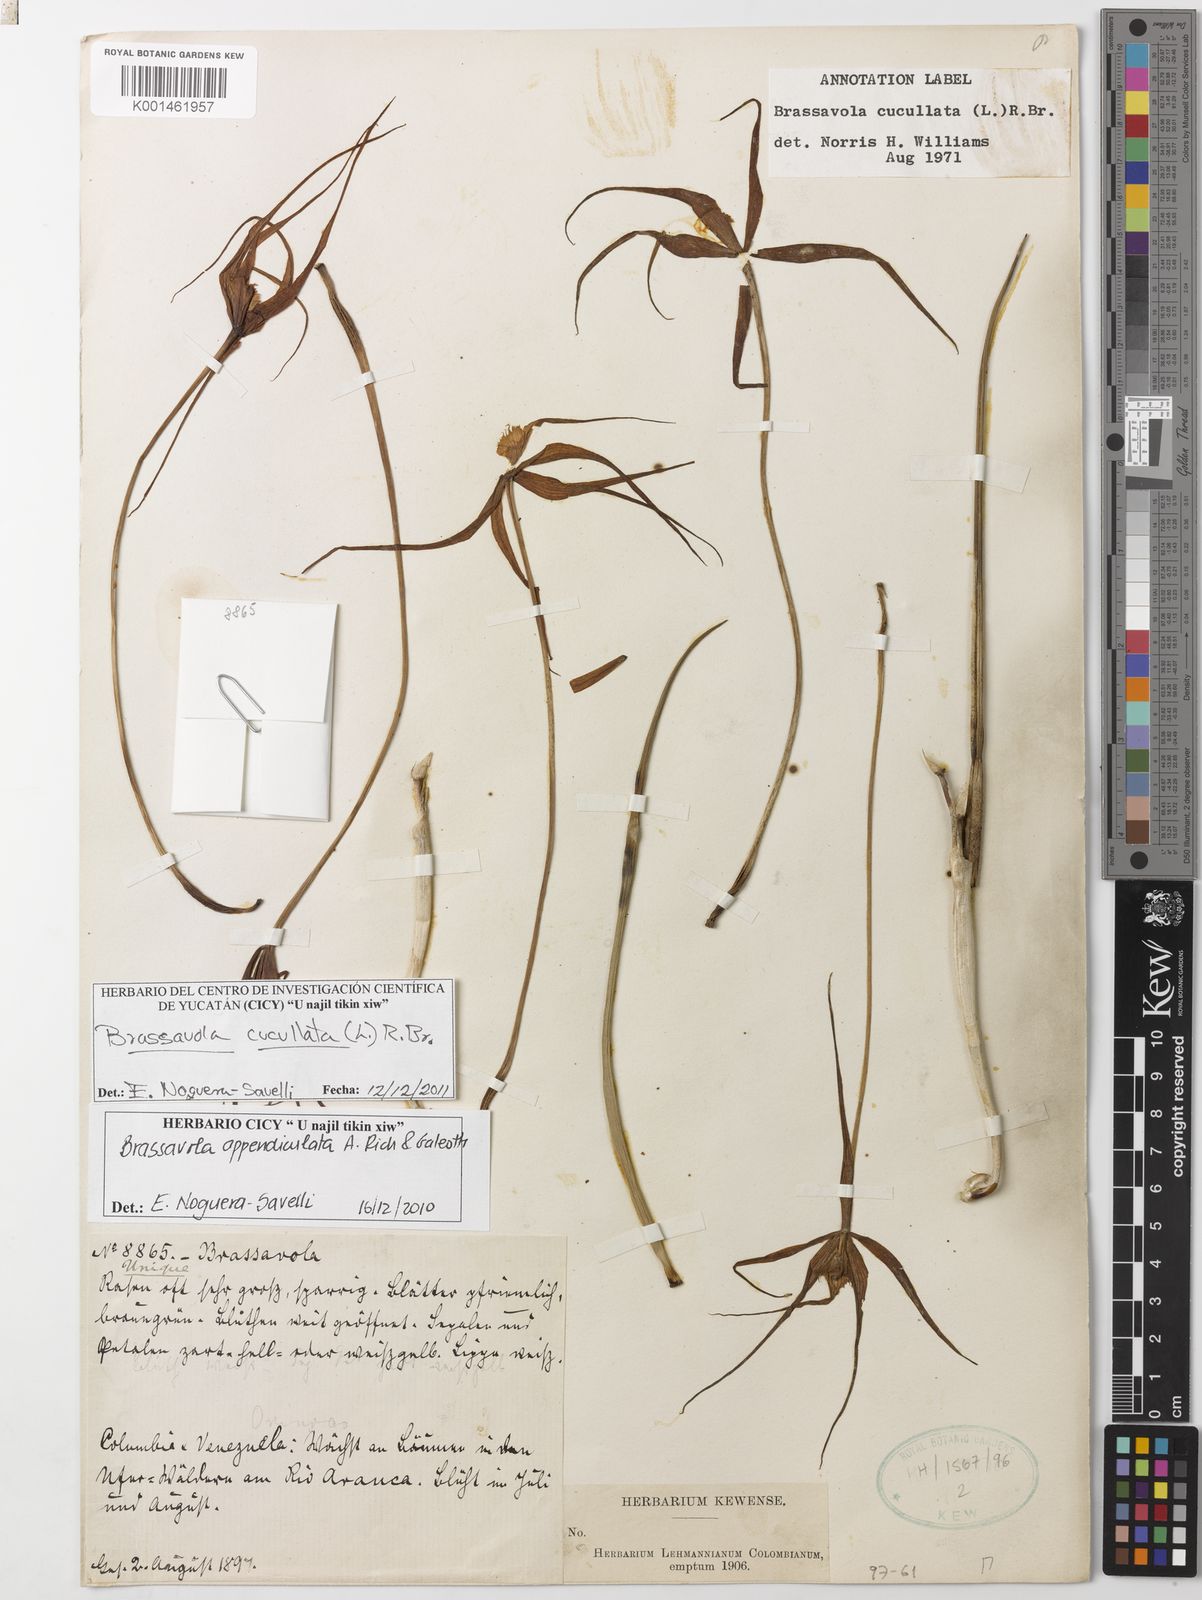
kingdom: Plantae
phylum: Tracheophyta
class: Liliopsida
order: Asparagales
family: Orchidaceae
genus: Brassavola
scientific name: Brassavola cucullata
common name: Daddy longlegs orchid
